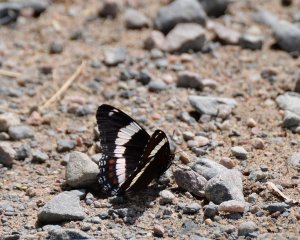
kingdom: Animalia
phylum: Arthropoda
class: Insecta
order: Lepidoptera
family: Nymphalidae
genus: Limenitis
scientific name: Limenitis arthemis
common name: Red-spotted Admiral
